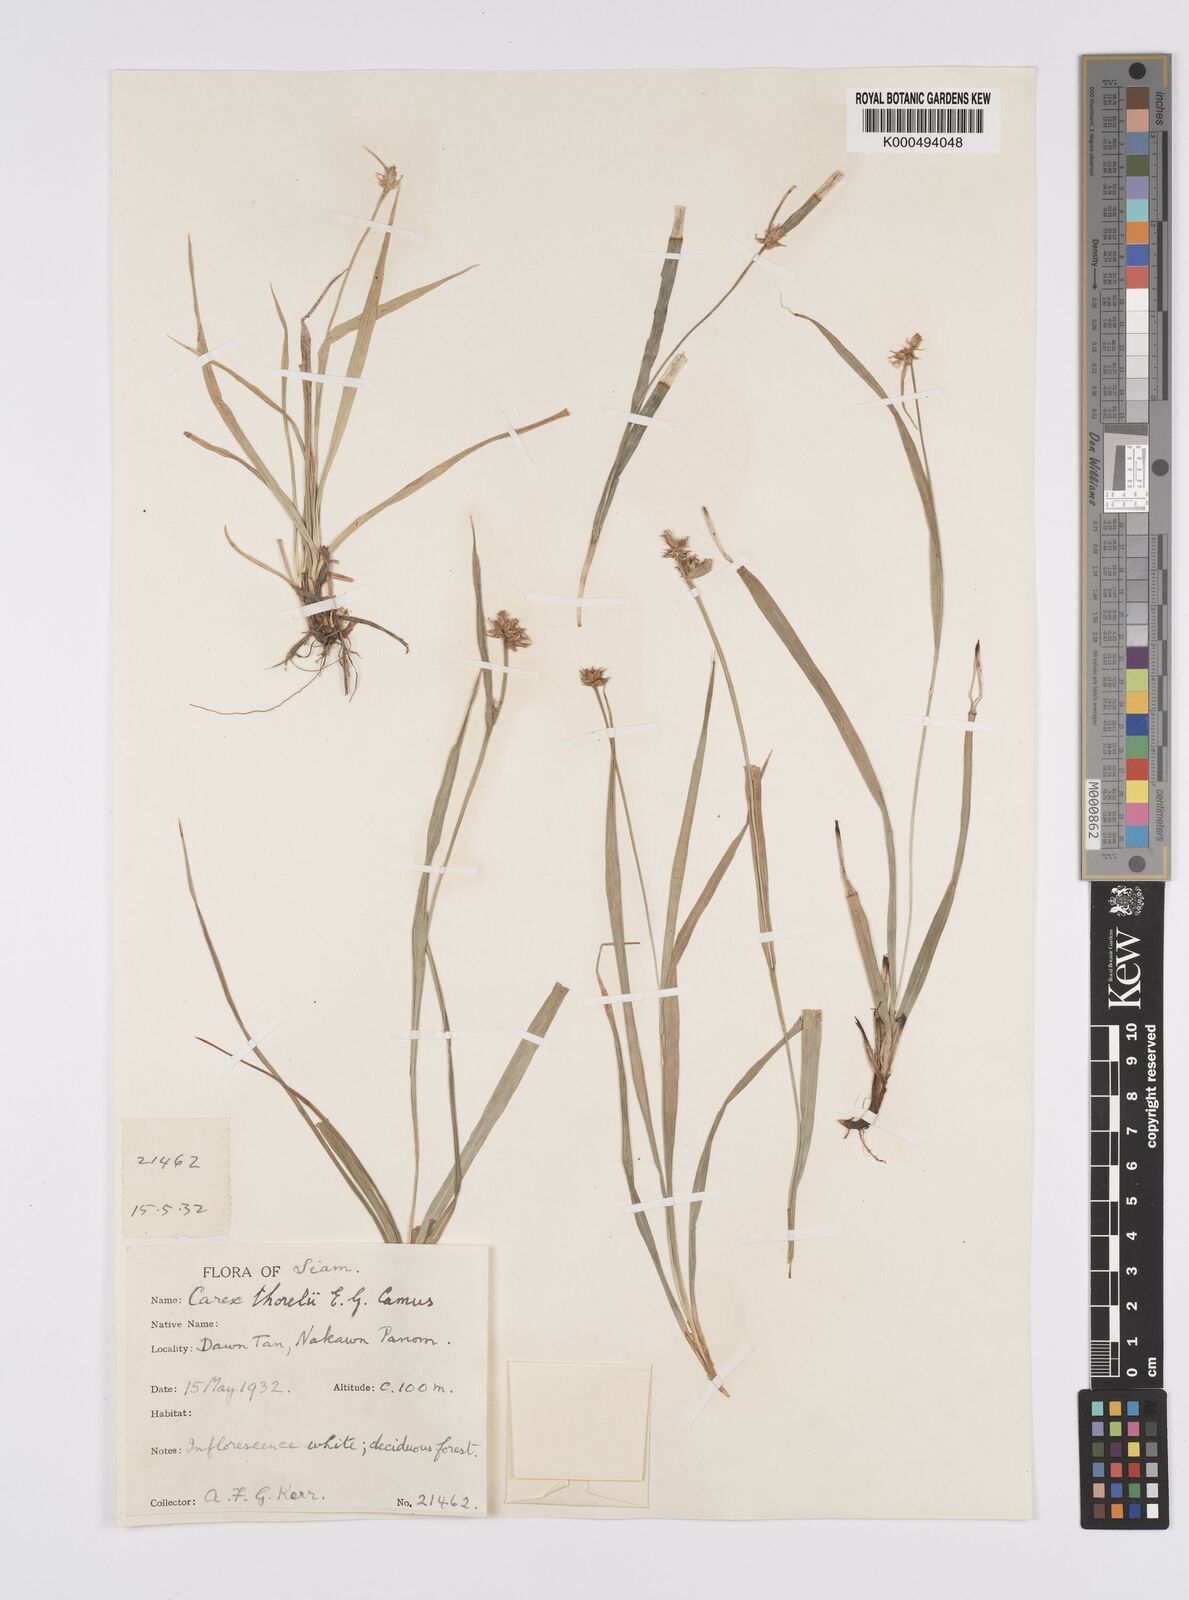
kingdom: Plantae
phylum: Tracheophyta
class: Liliopsida
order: Poales
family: Cyperaceae
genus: Carex
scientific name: Carex tricephala
